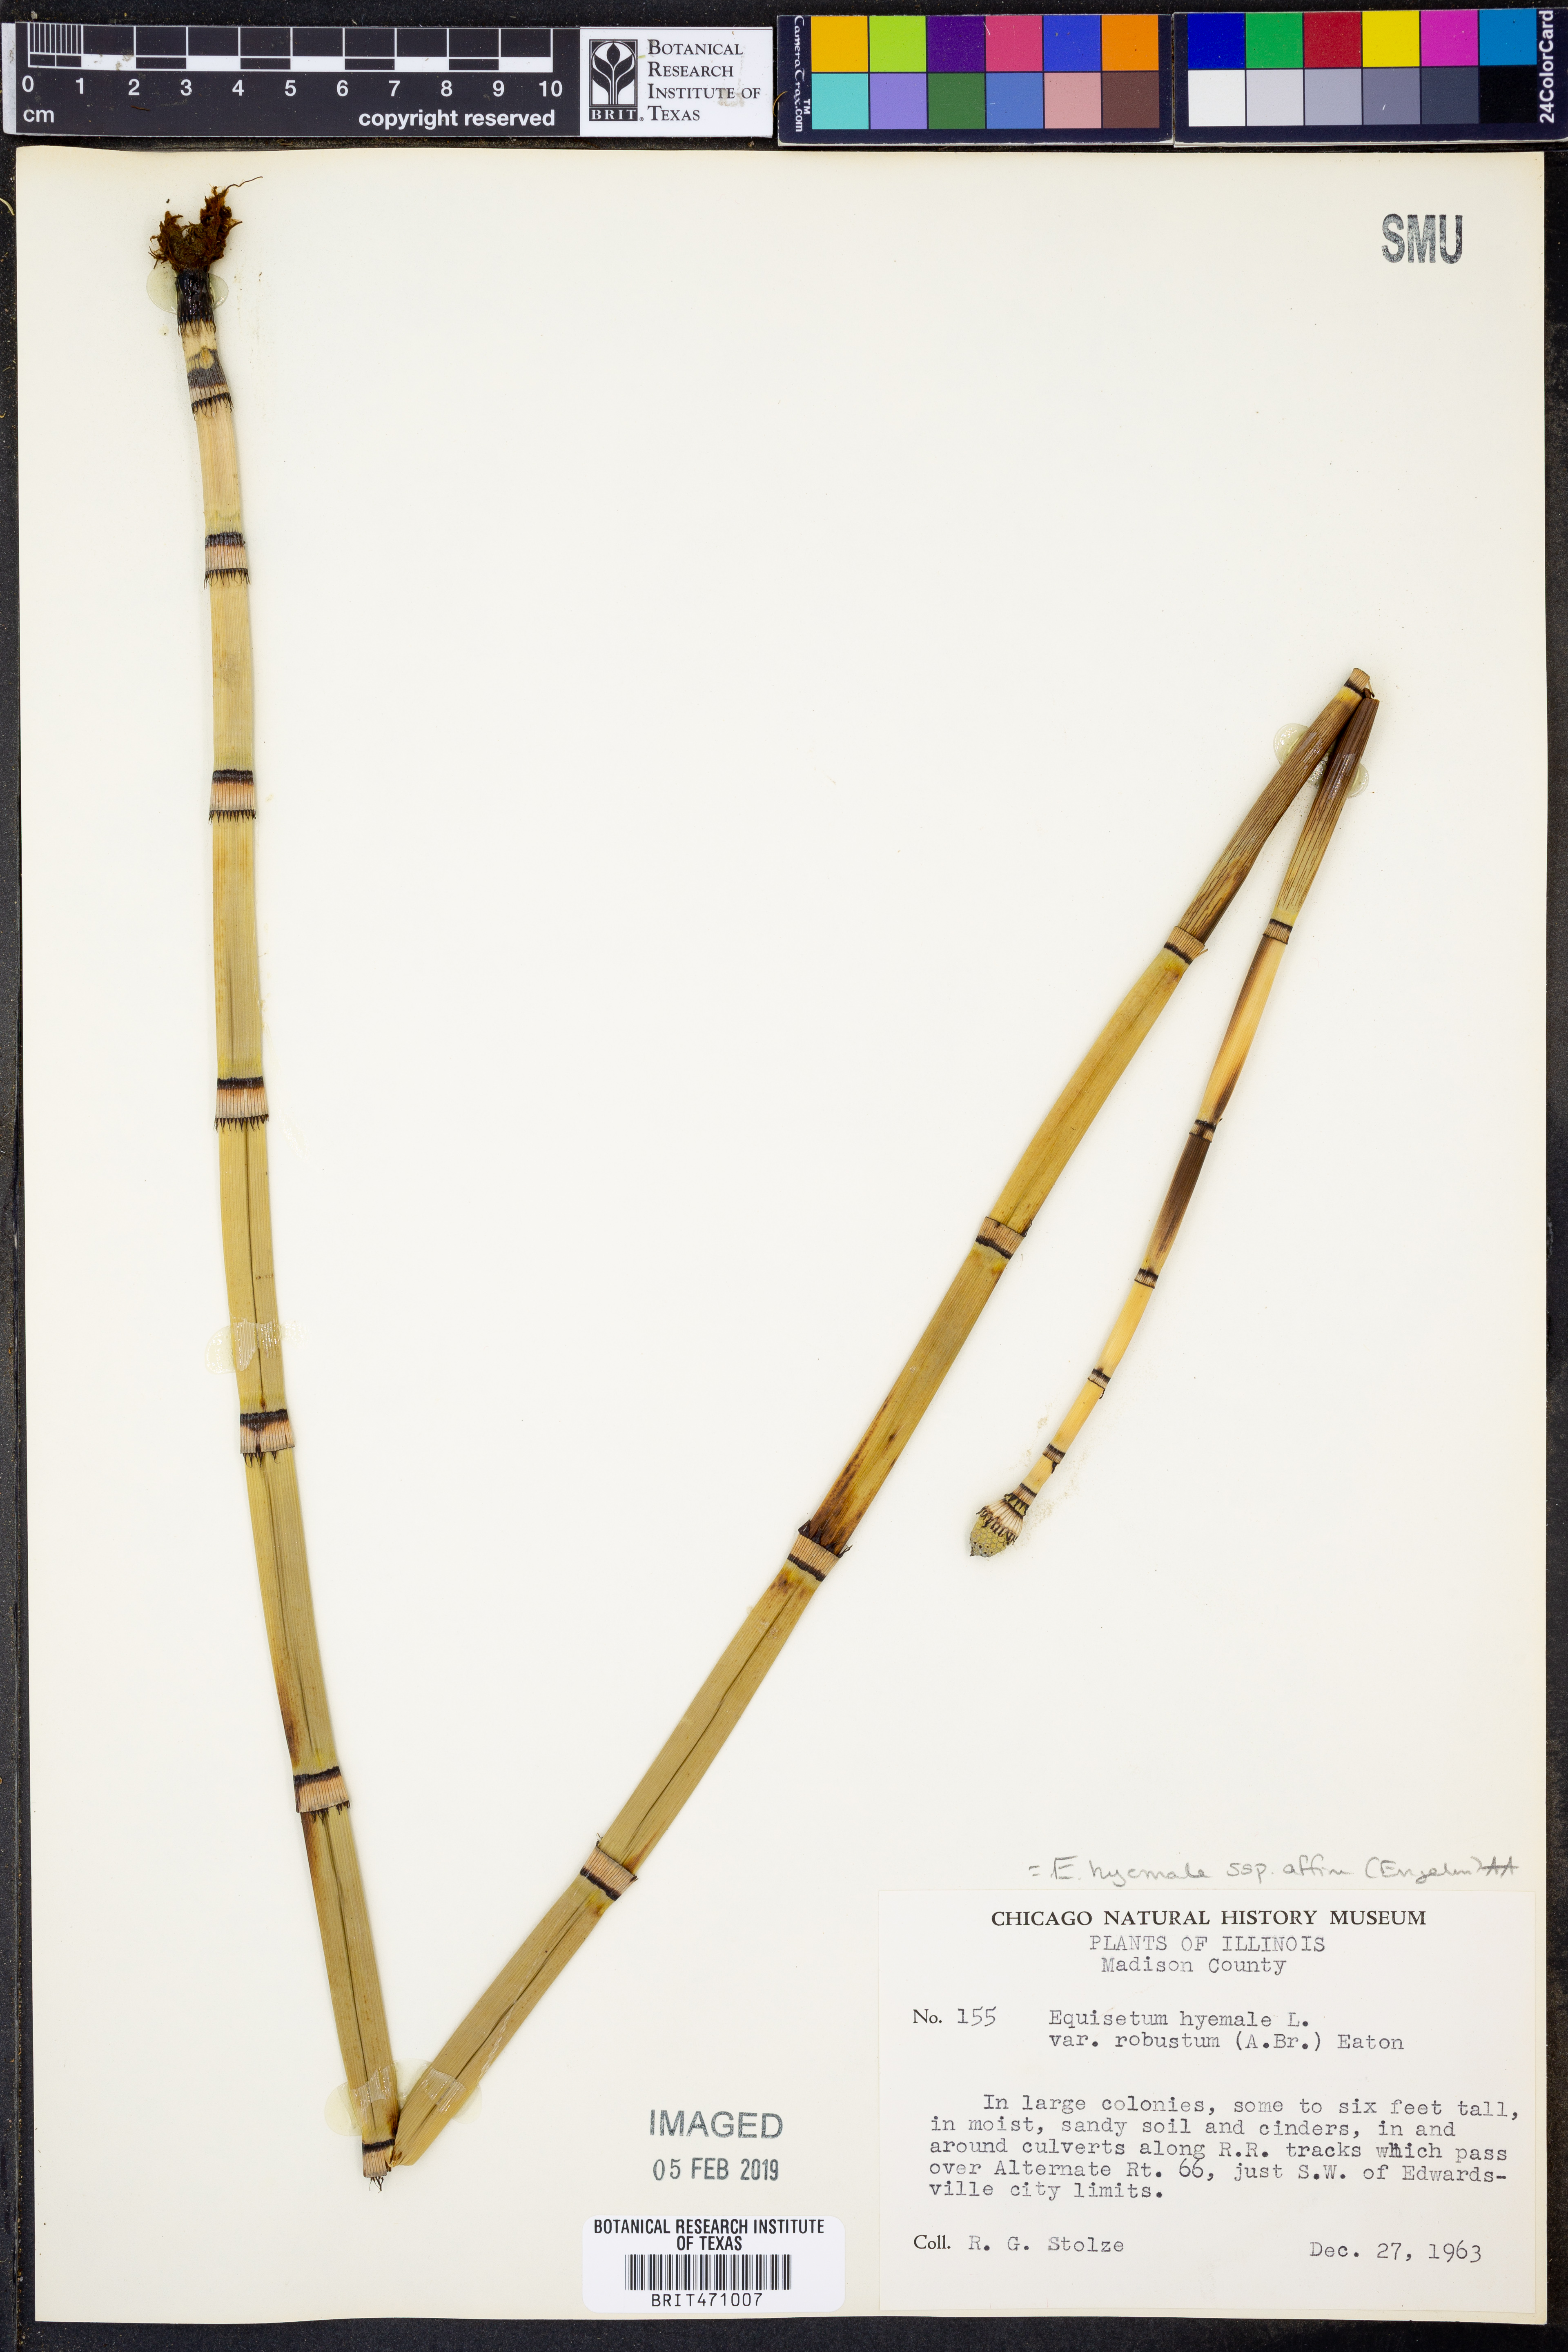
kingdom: Plantae
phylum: Tracheophyta
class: Polypodiopsida
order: Equisetales
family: Equisetaceae
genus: Equisetum
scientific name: Equisetum praealtum
